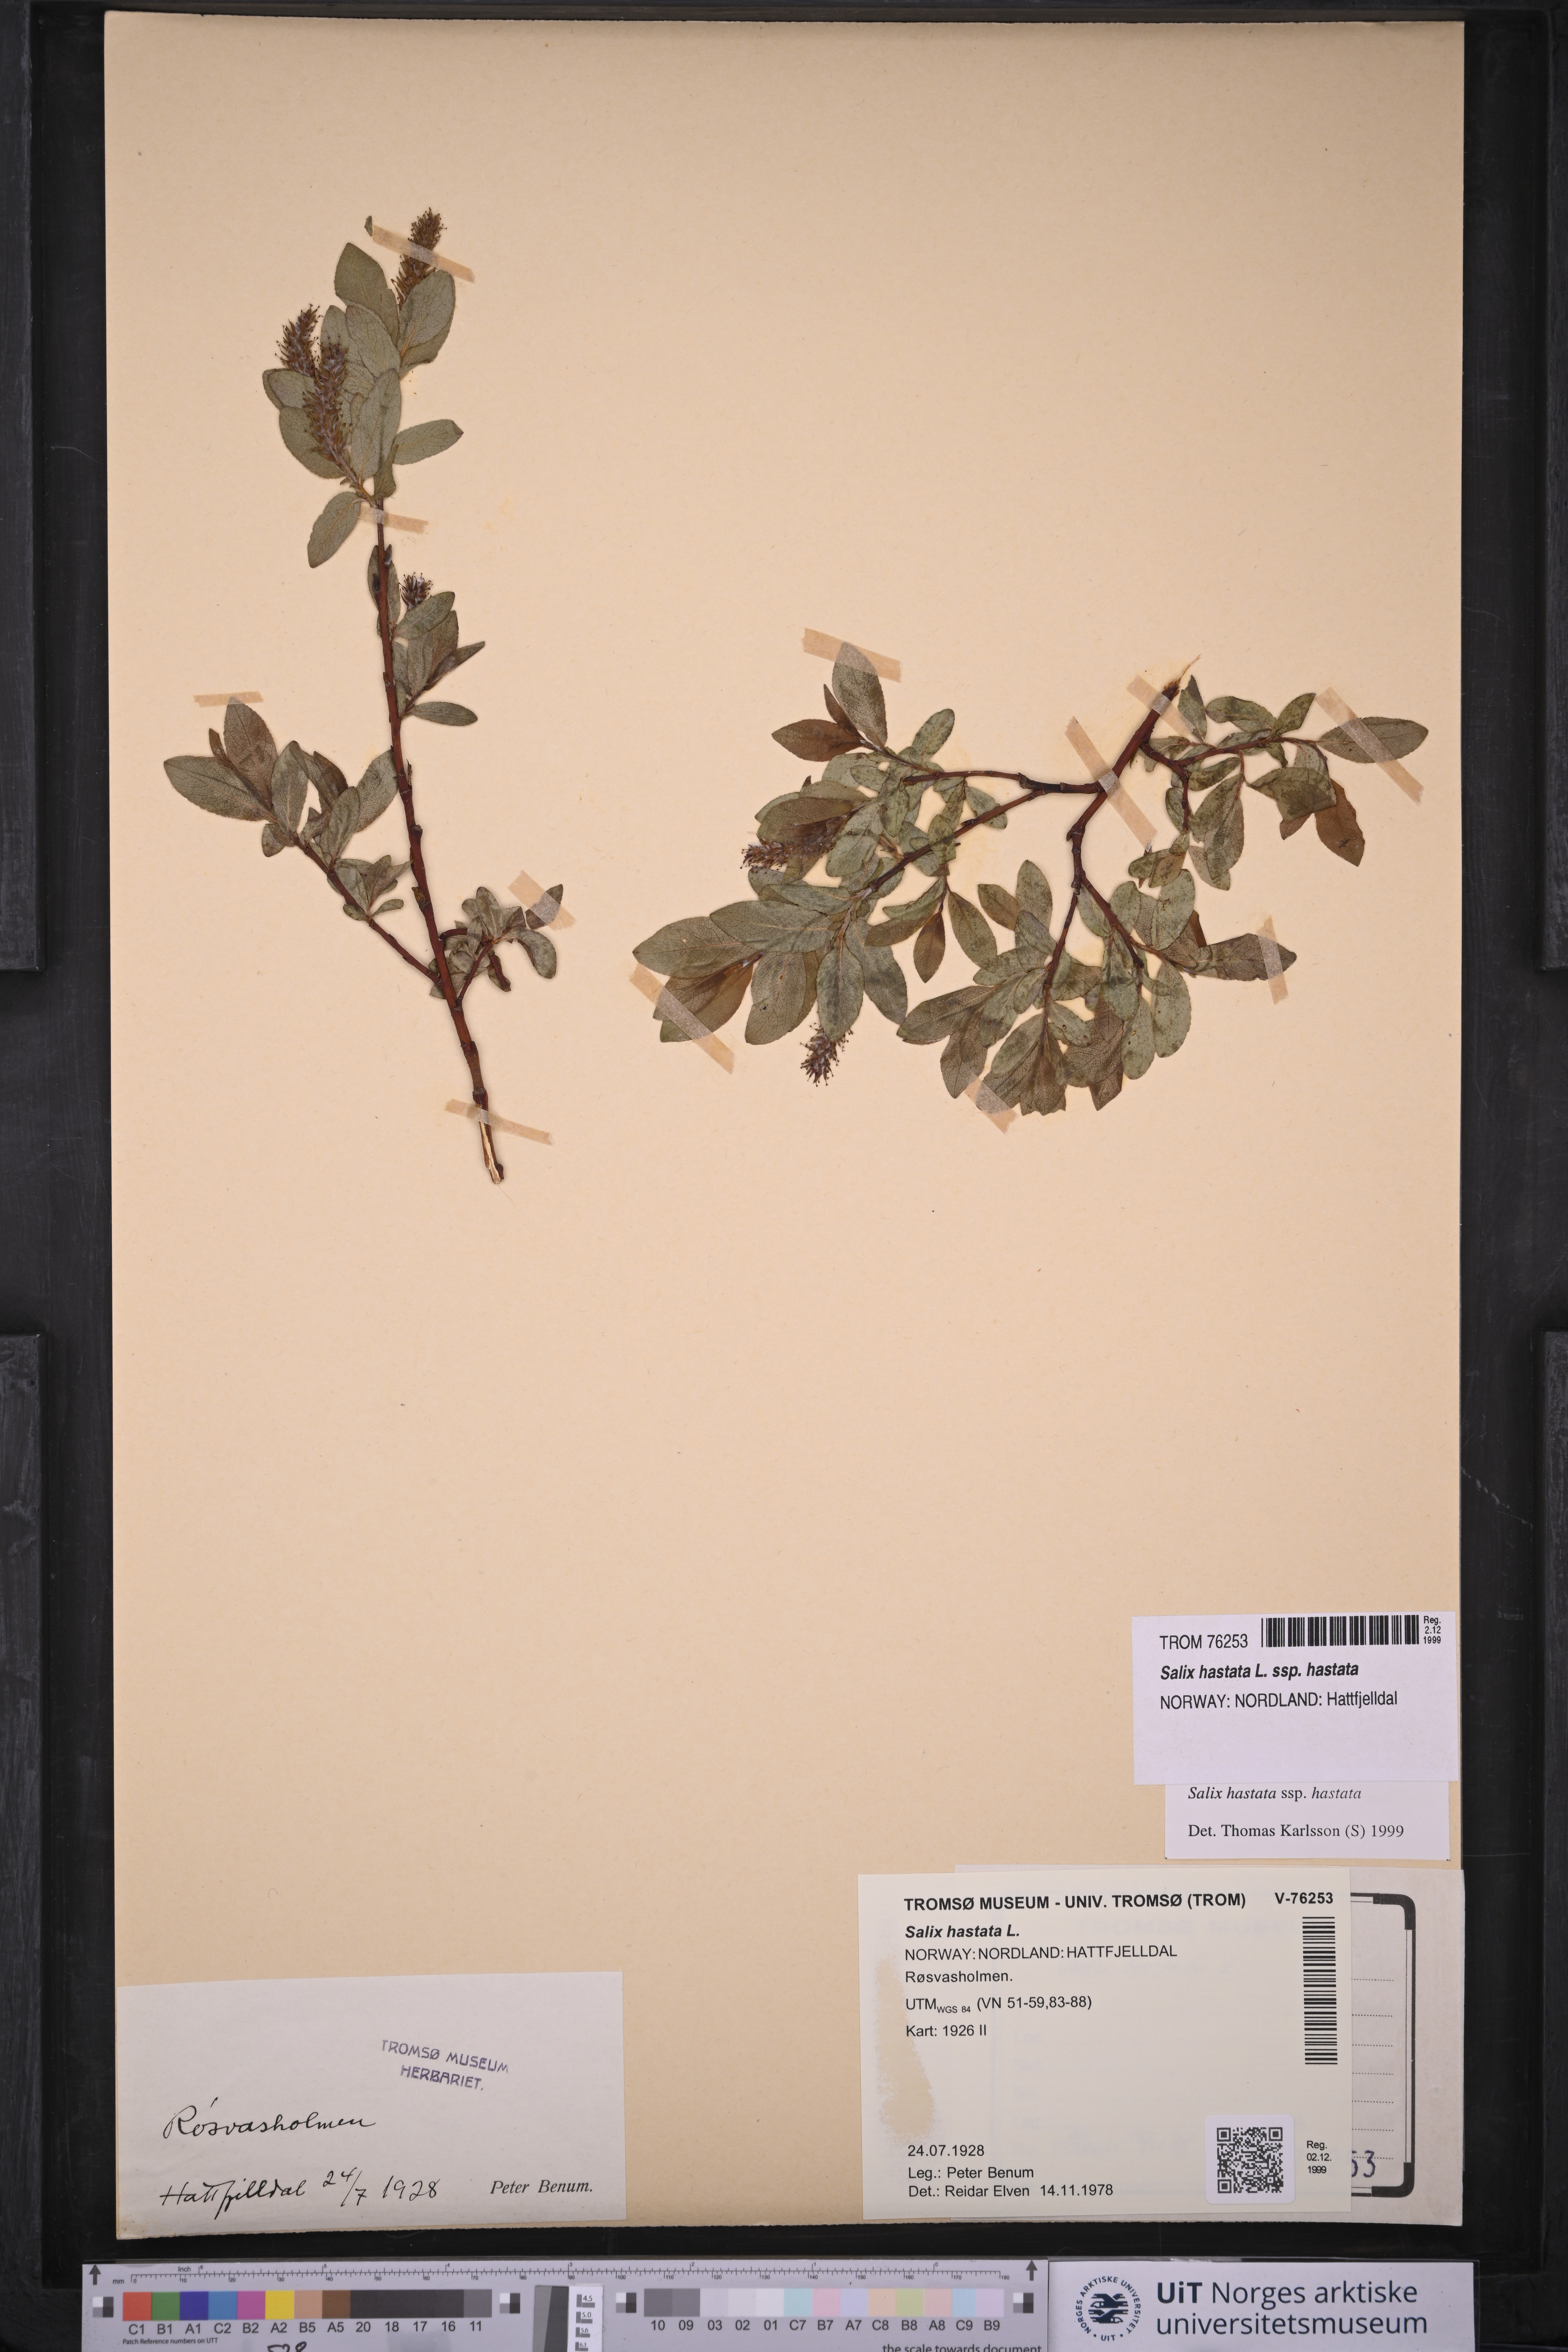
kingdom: Plantae
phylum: Tracheophyta
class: Magnoliopsida
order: Malpighiales
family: Salicaceae
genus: Salix
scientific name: Salix hastata
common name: Halberd willow
